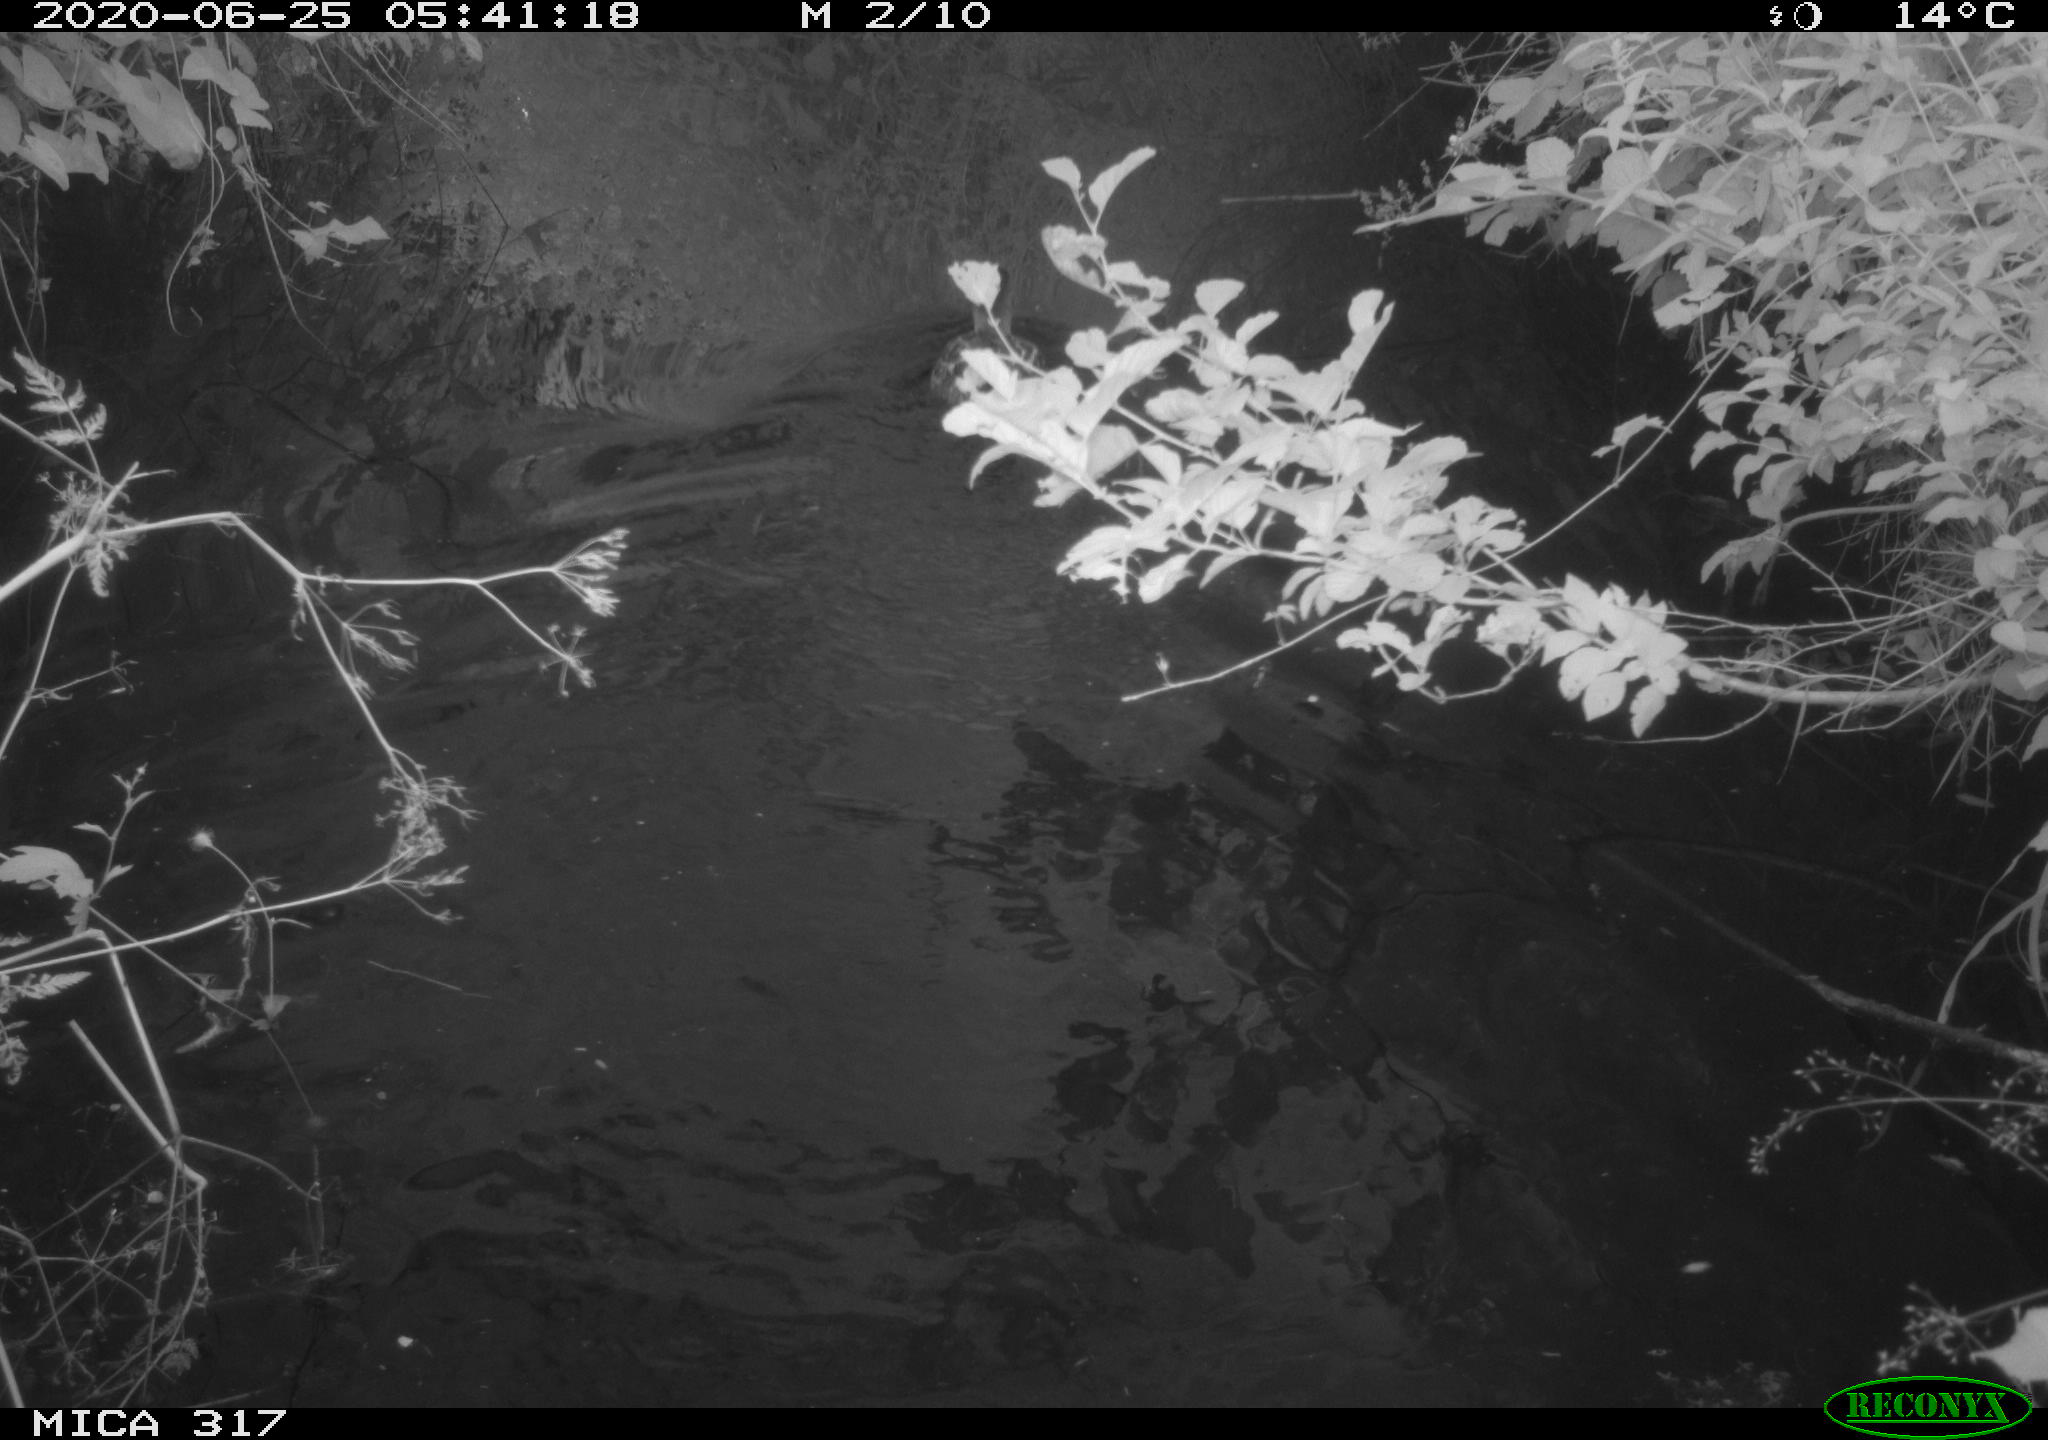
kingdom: Animalia
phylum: Chordata
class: Aves
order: Anseriformes
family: Anatidae
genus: Anas
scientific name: Anas platyrhynchos
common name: Mallard
